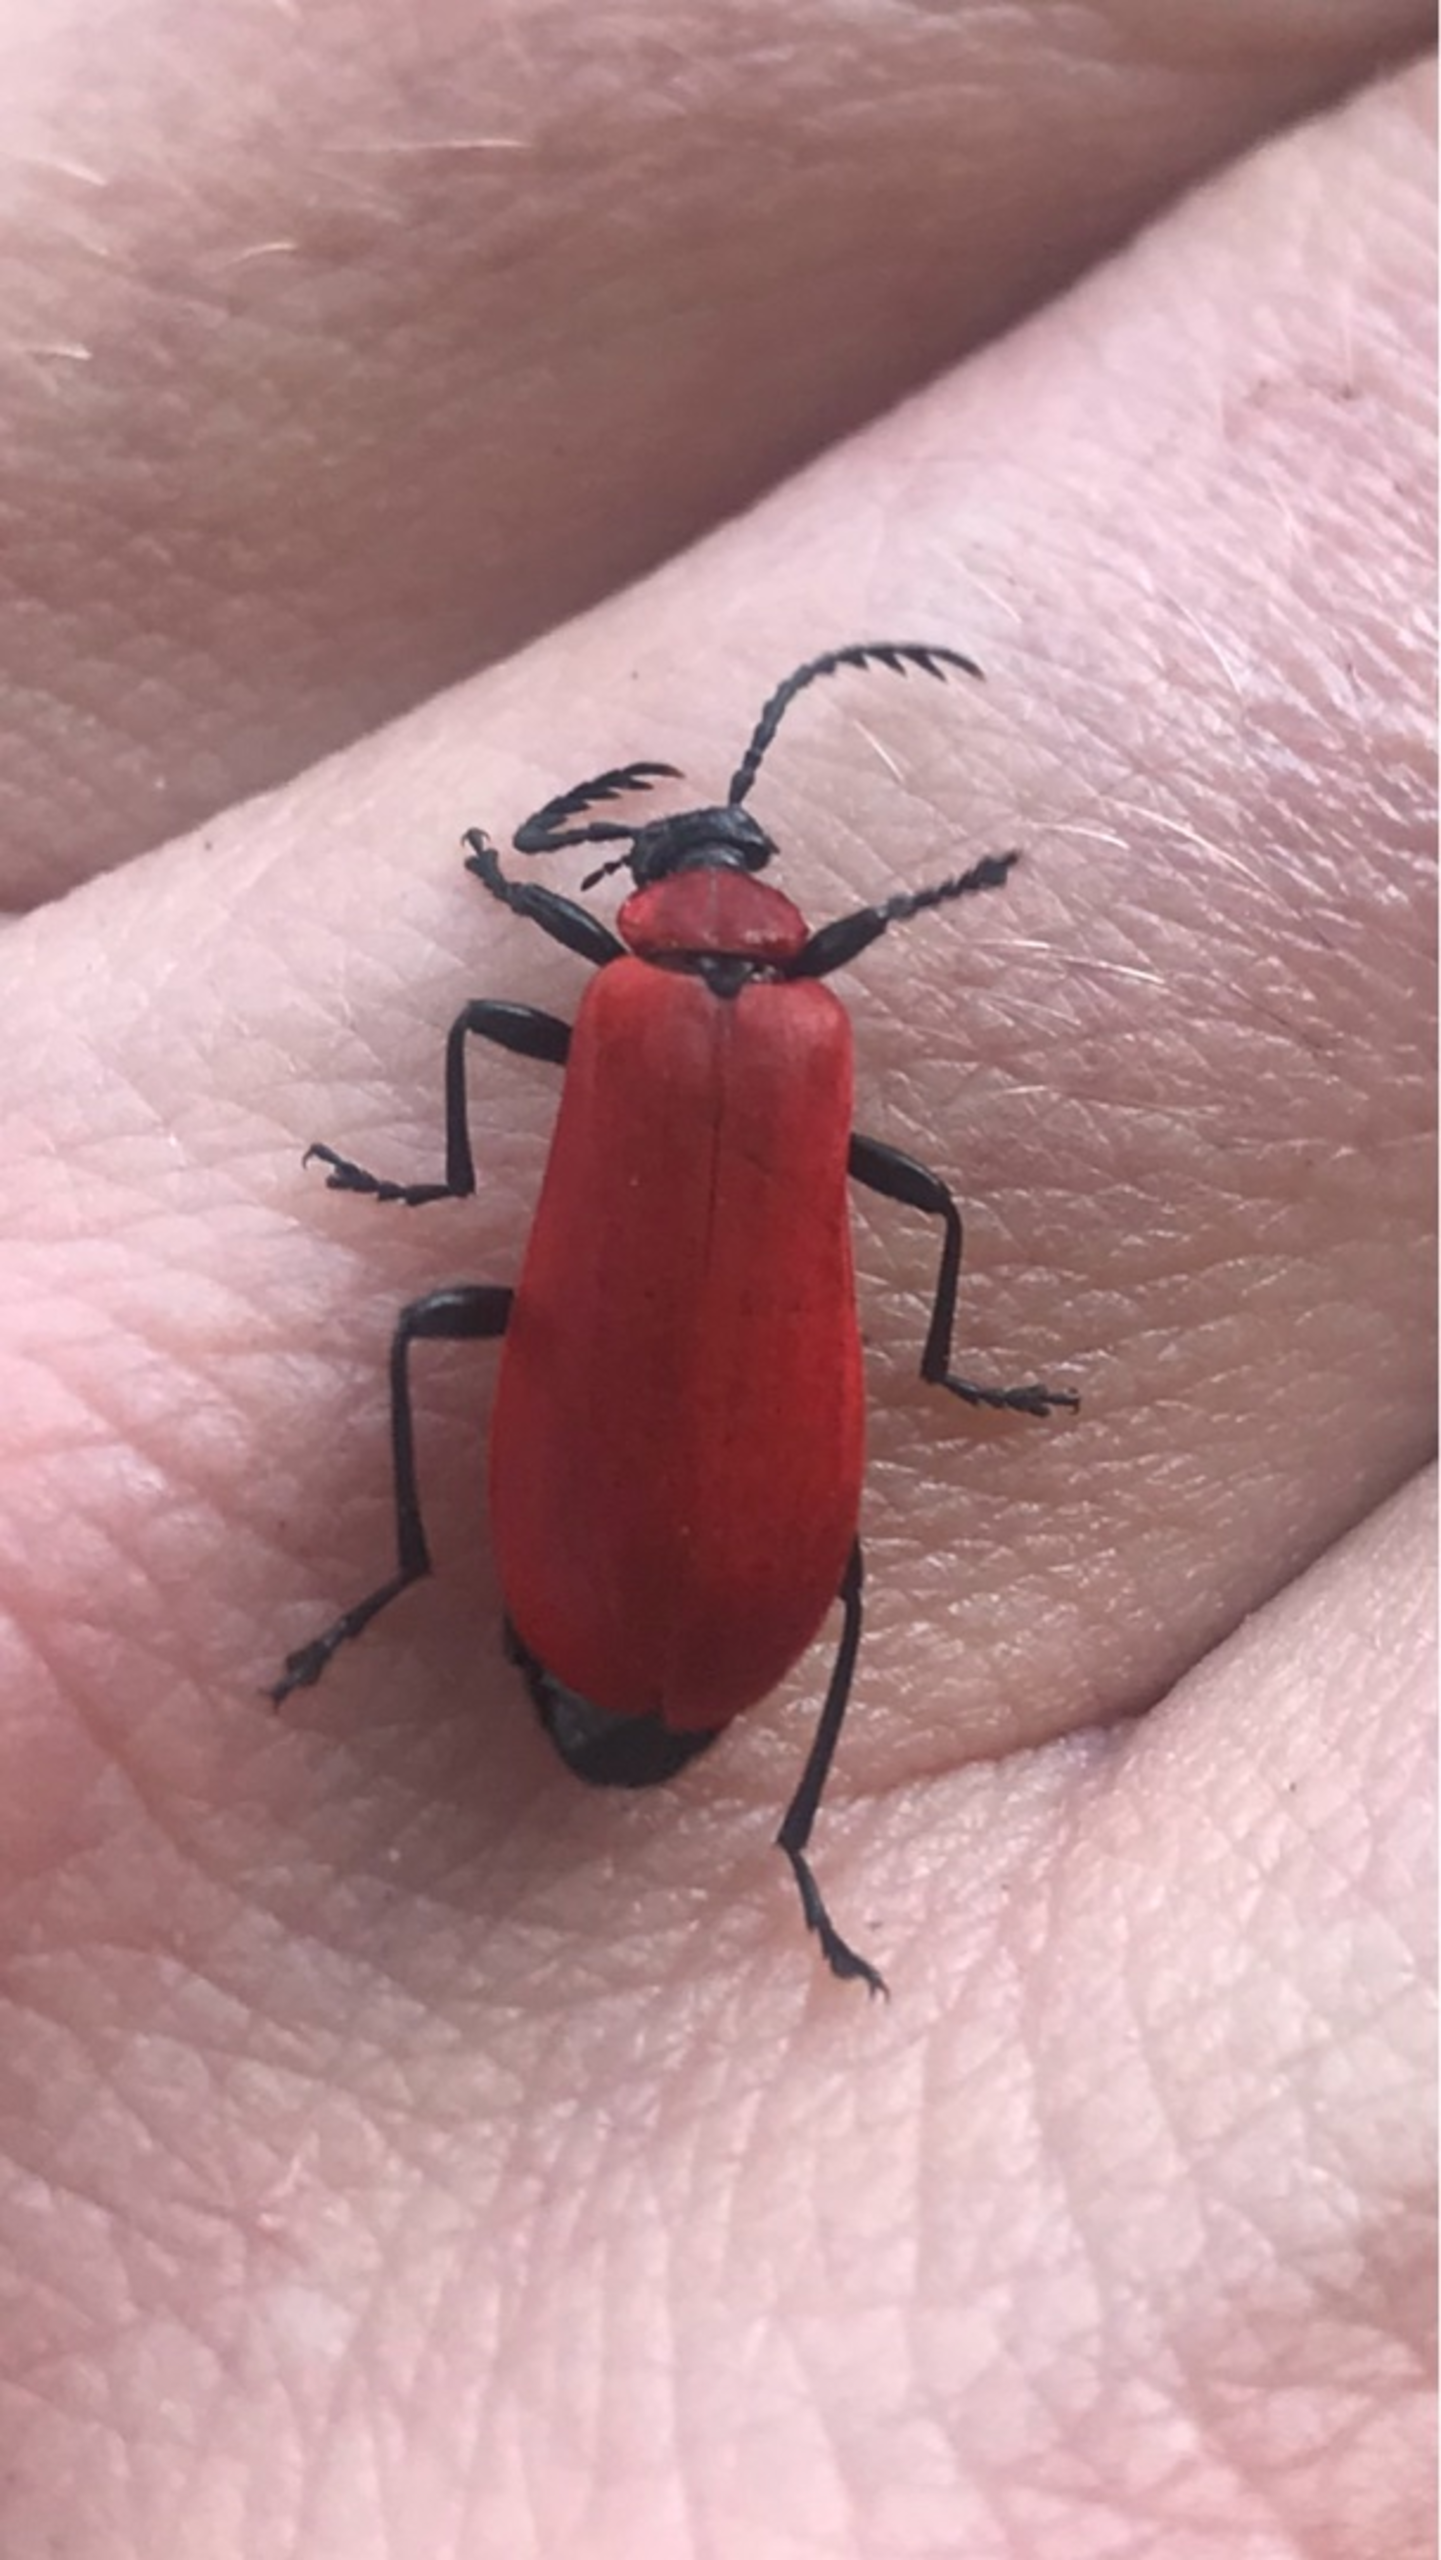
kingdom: Animalia
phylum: Arthropoda
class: Insecta
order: Coleoptera
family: Pyrochroidae
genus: Pyrochroa
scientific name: Pyrochroa coccinea
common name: Sorthovedet kardinalbille
